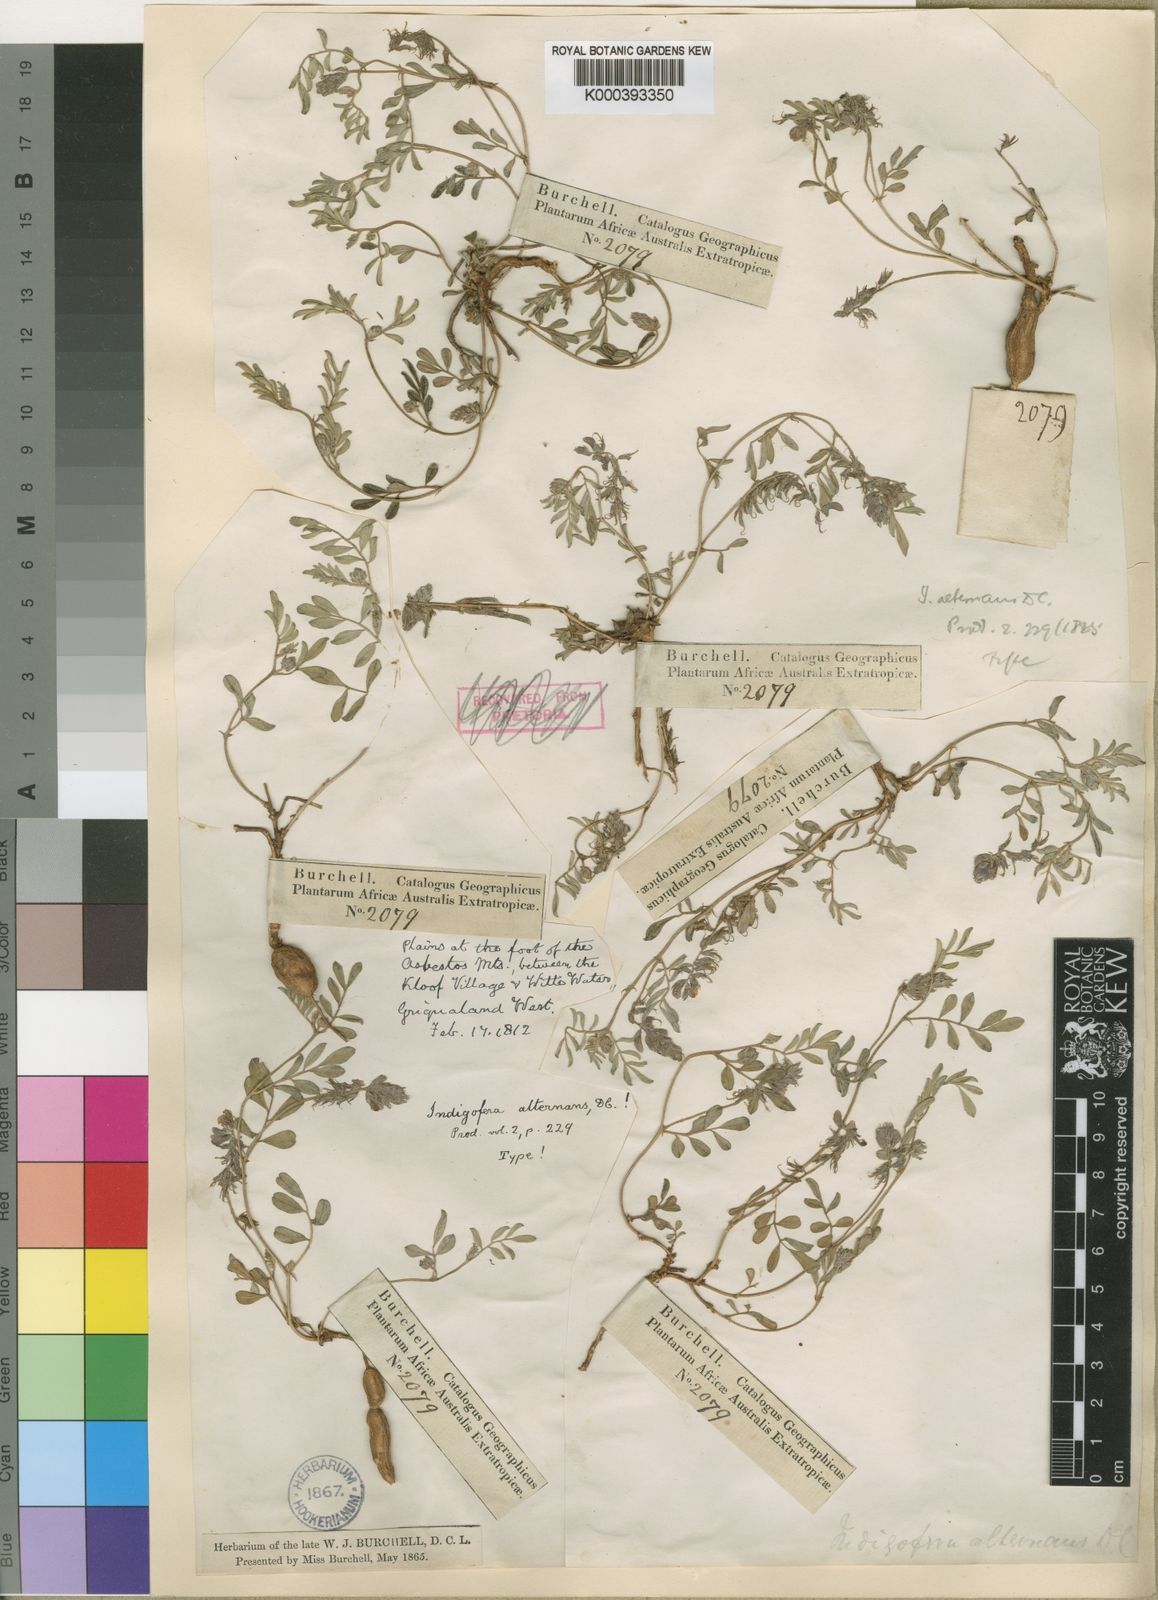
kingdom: Plantae
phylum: Tracheophyta
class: Magnoliopsida
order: Fabales
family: Fabaceae
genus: Indigofera
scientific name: Indigofera alternans
